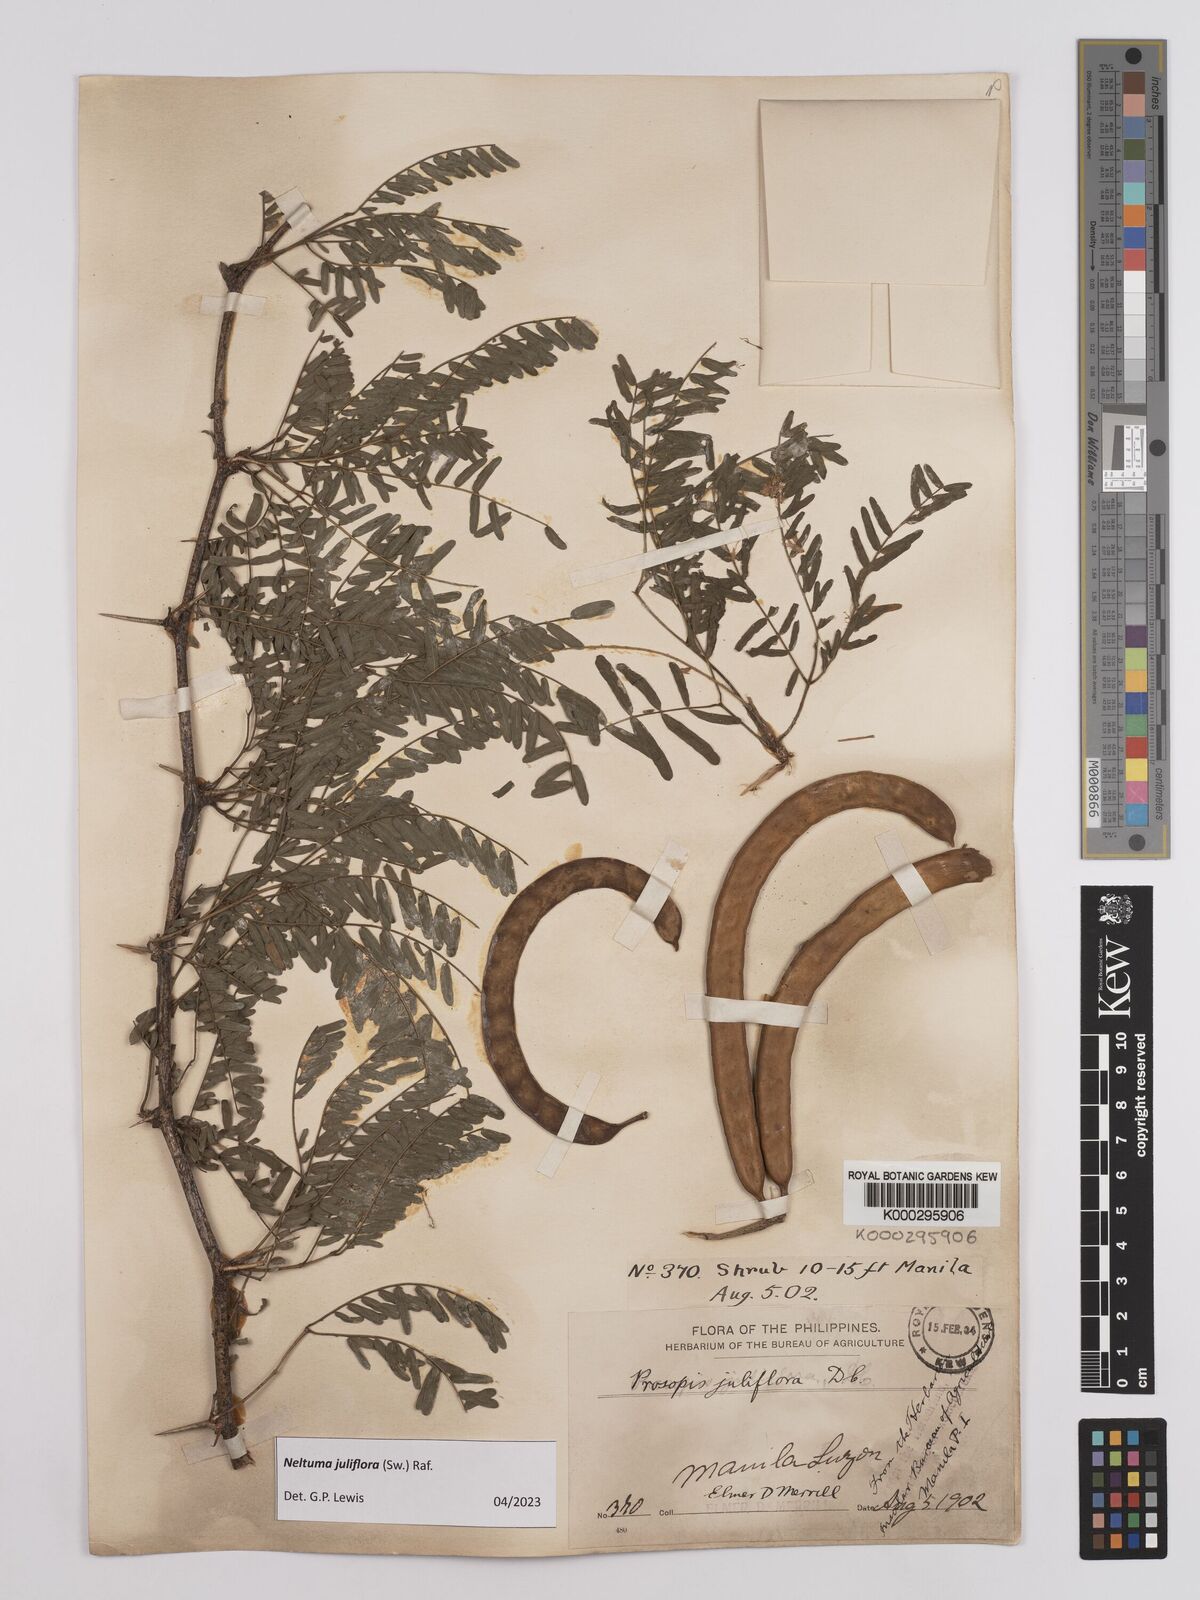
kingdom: Plantae
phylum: Tracheophyta
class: Magnoliopsida
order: Fabales
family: Fabaceae
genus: Prosopis
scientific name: Prosopis juliflora
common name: Mesquite
